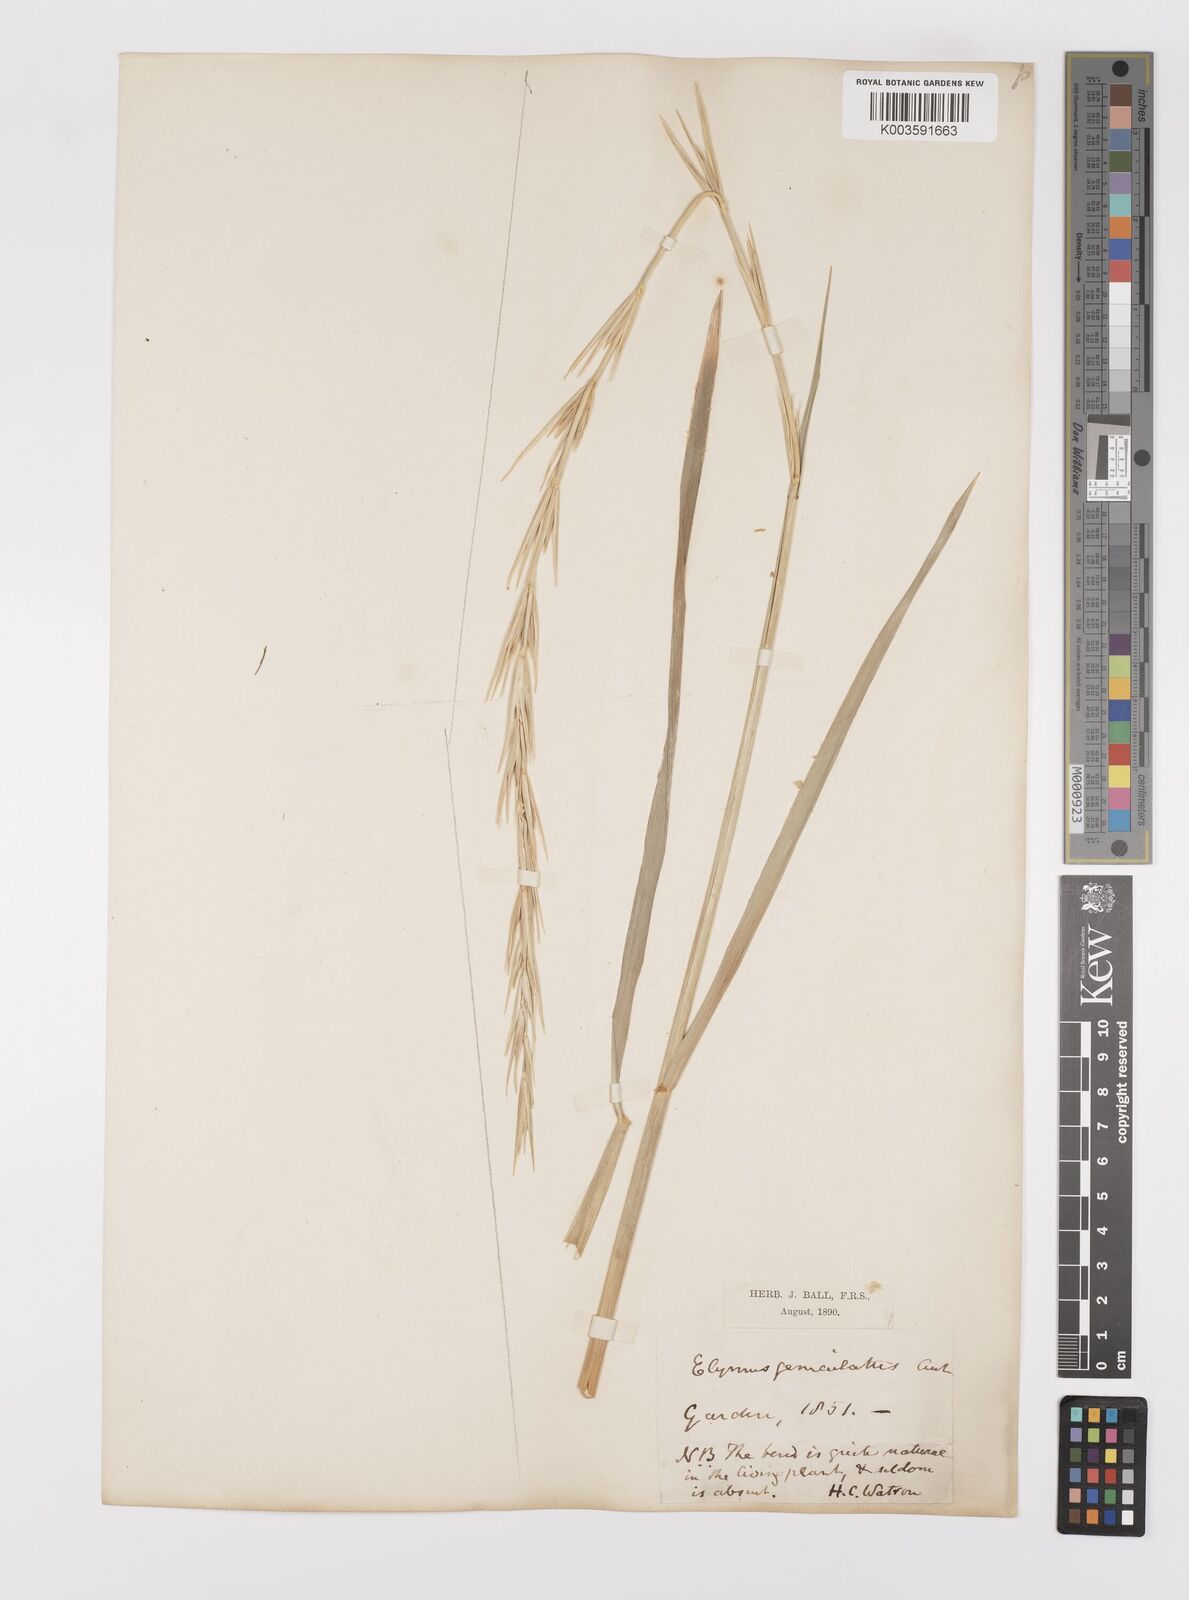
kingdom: Plantae
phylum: Tracheophyta
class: Liliopsida
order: Poales
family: Poaceae
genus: Leymus
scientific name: Leymus arenarius
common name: Lyme-grass
